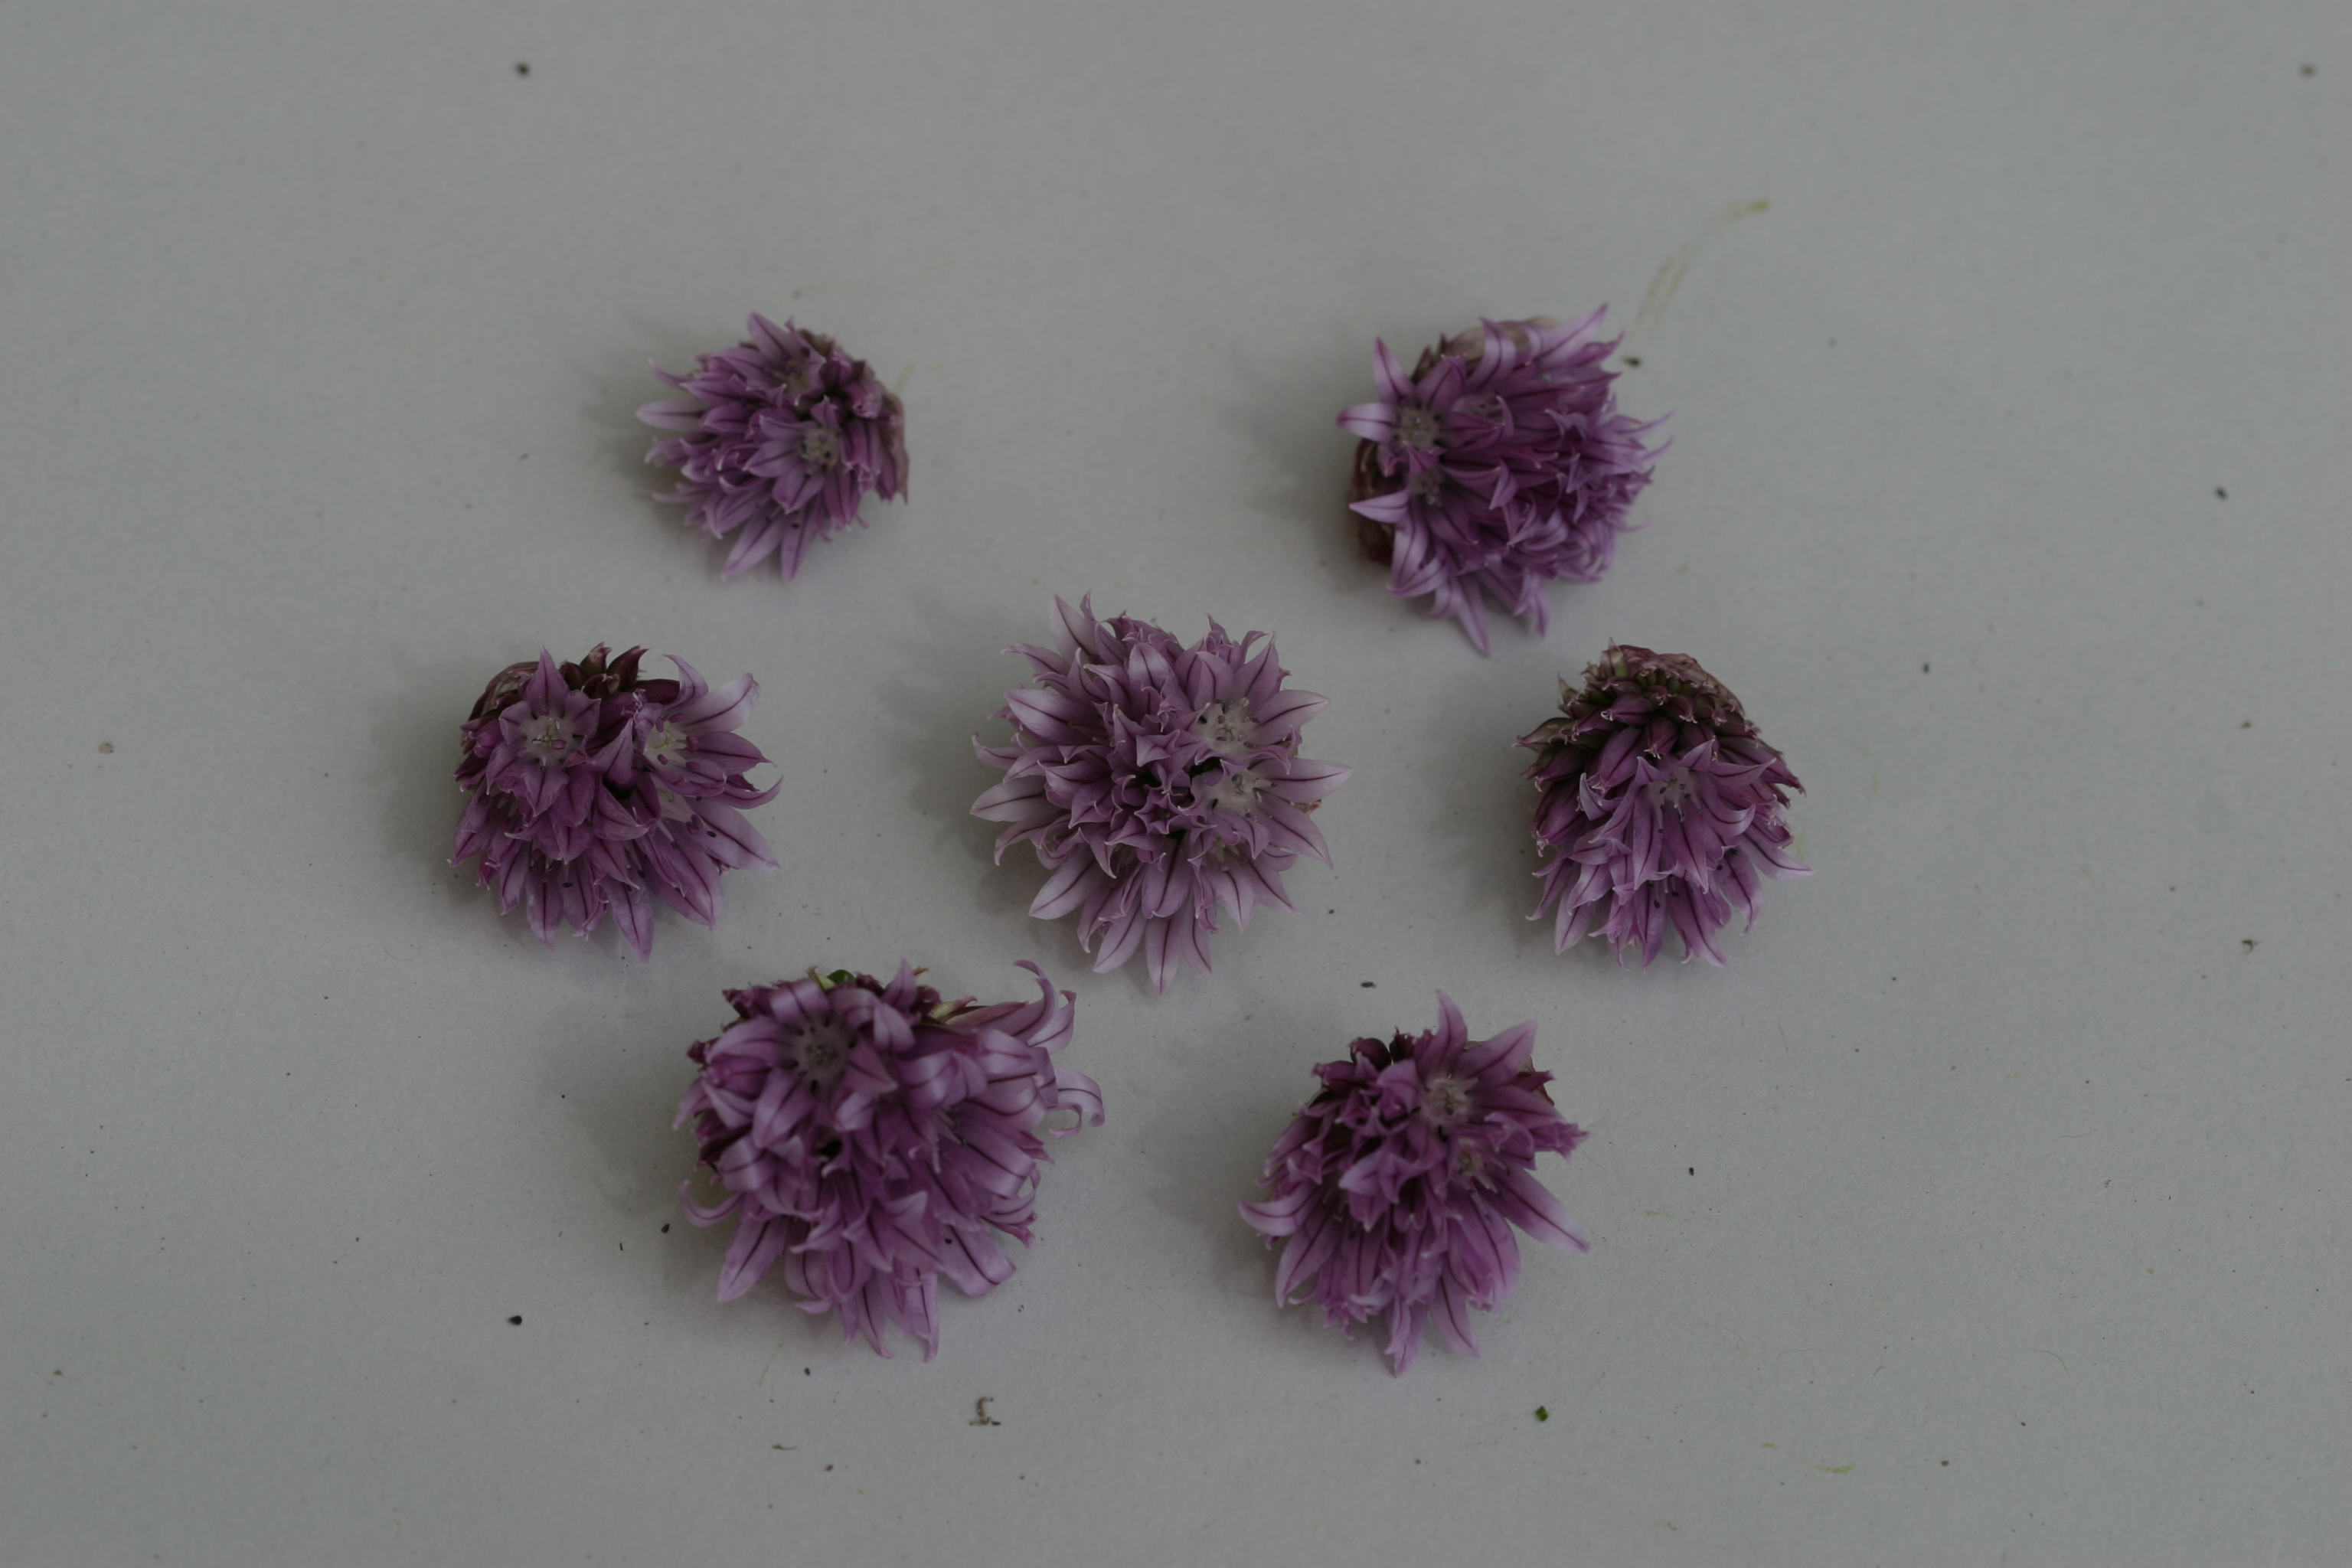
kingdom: Plantae
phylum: Tracheophyta
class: Liliopsida
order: Asparagales
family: Amaryllidaceae
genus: Allium
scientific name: Allium schoenoprasum
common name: Chives
